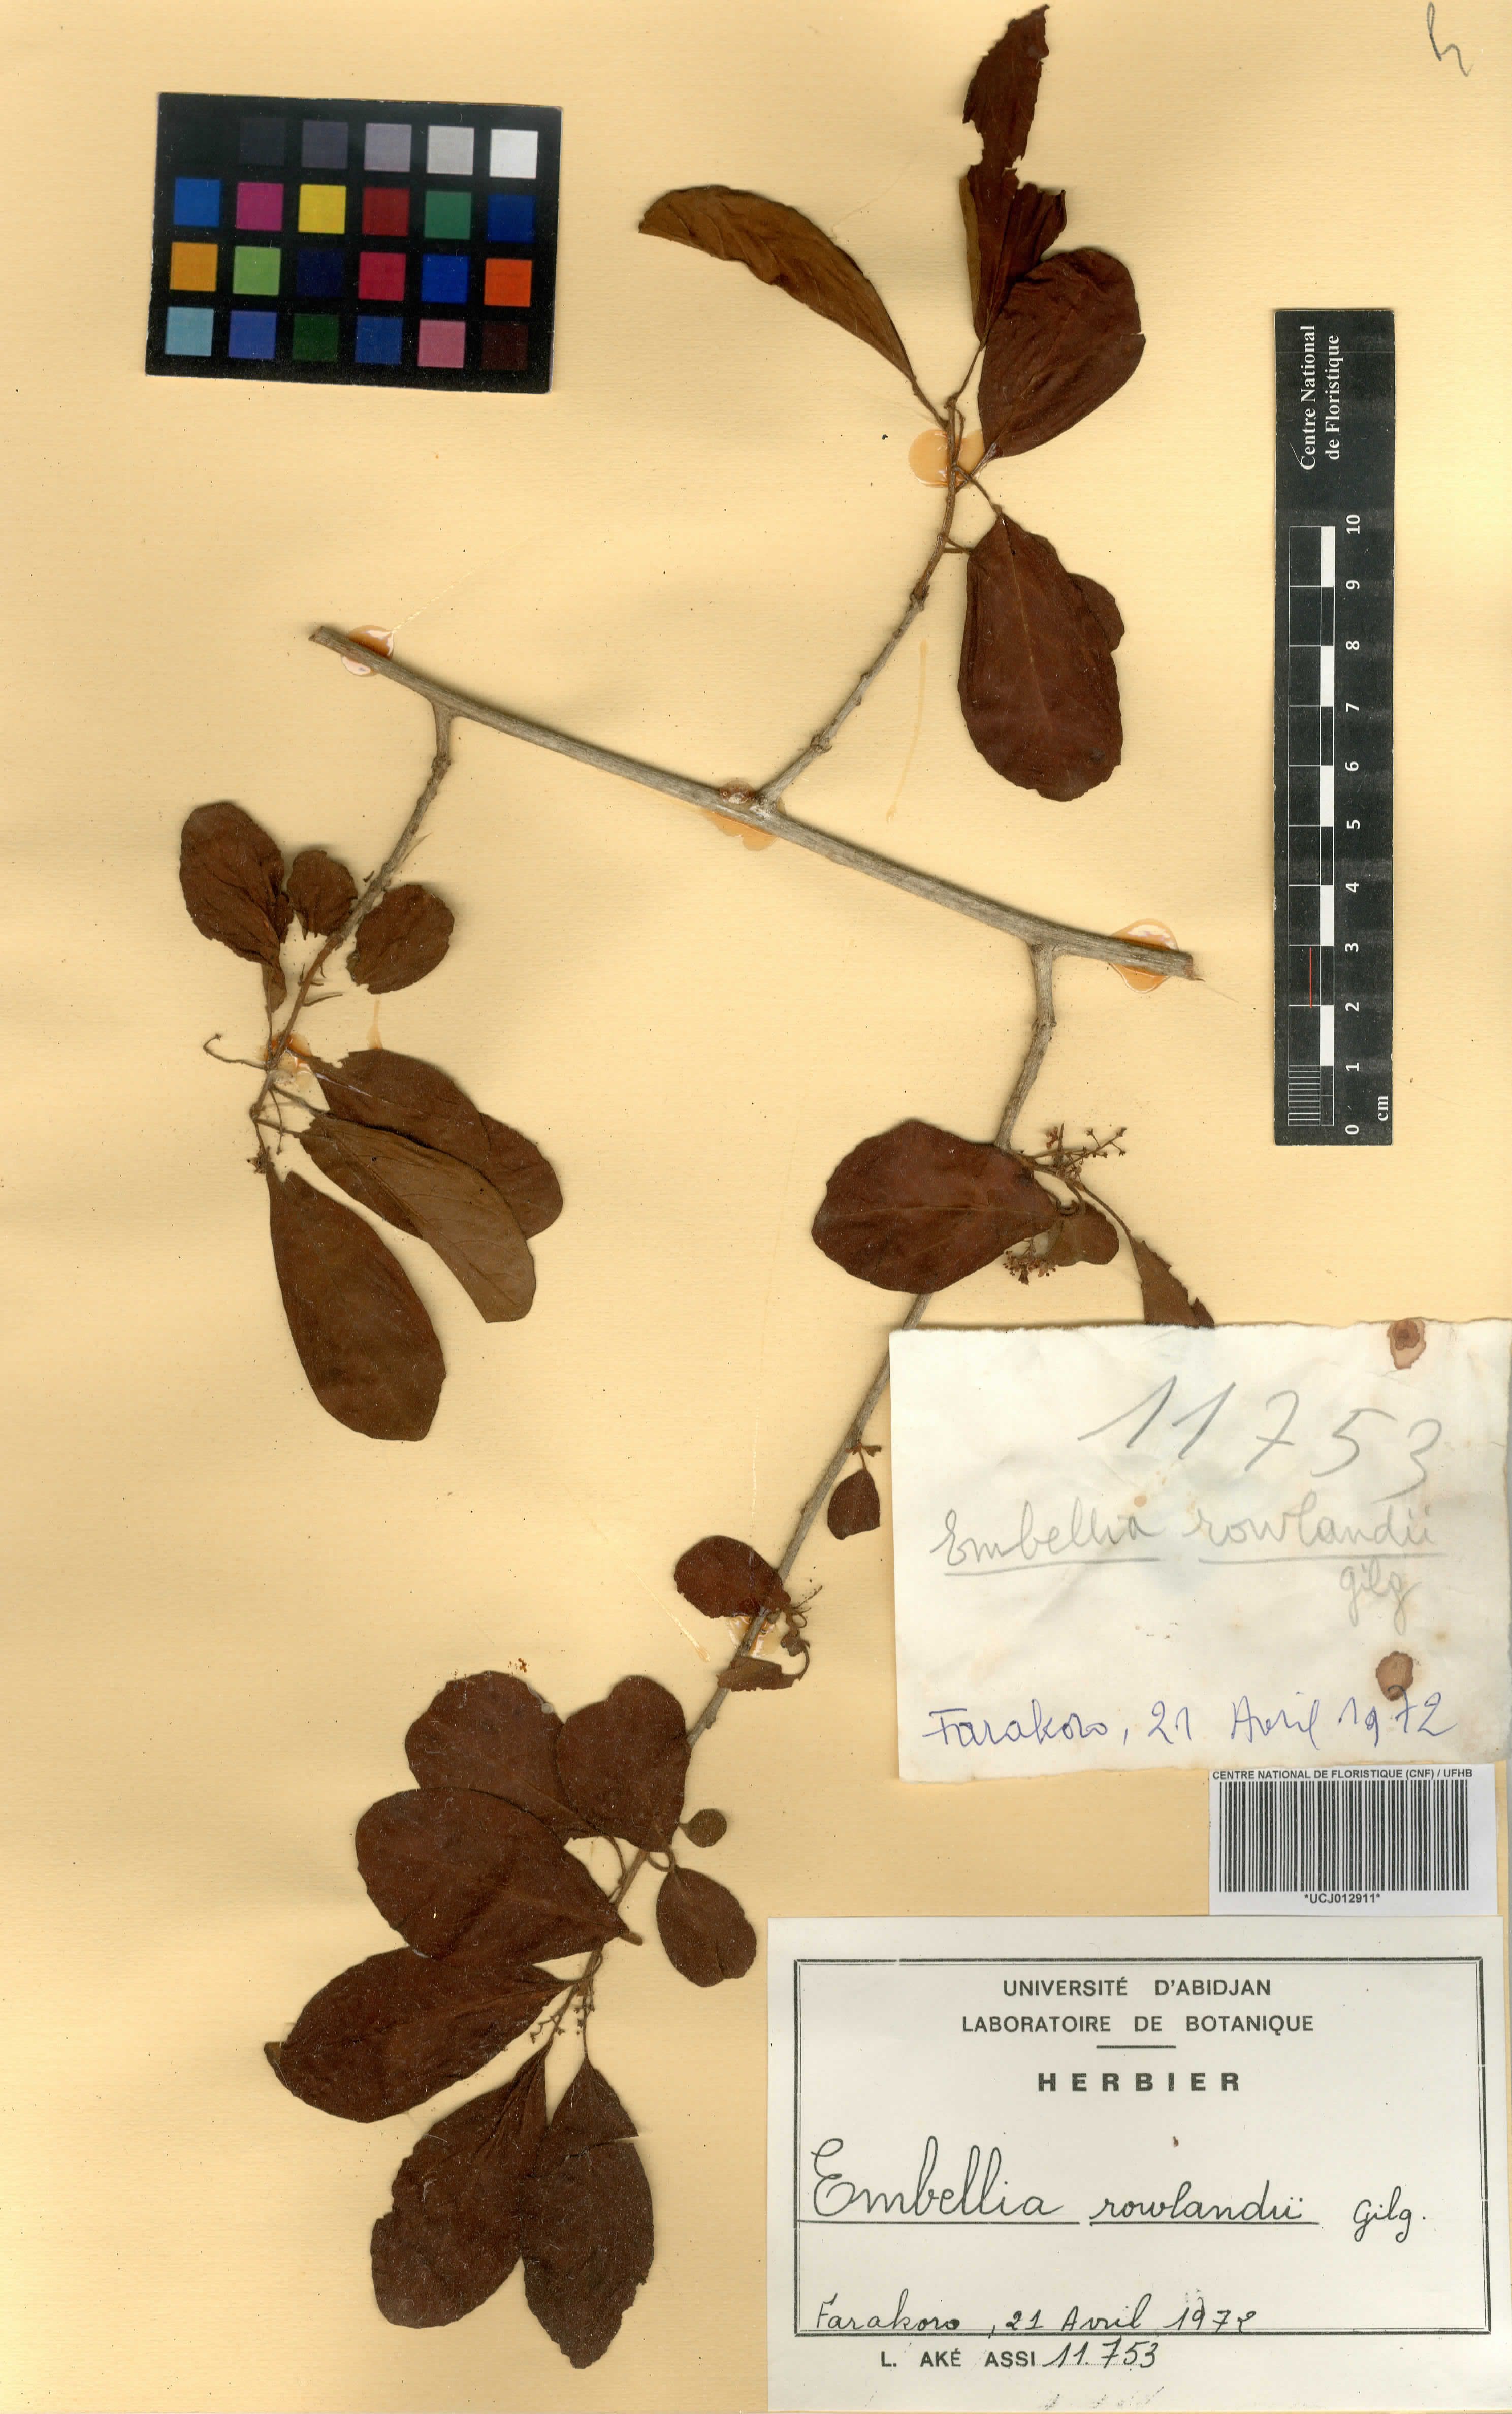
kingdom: Plantae
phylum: Tracheophyta
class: Magnoliopsida
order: Ericales
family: Primulaceae
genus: Embelia
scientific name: Embelia rowlandii
